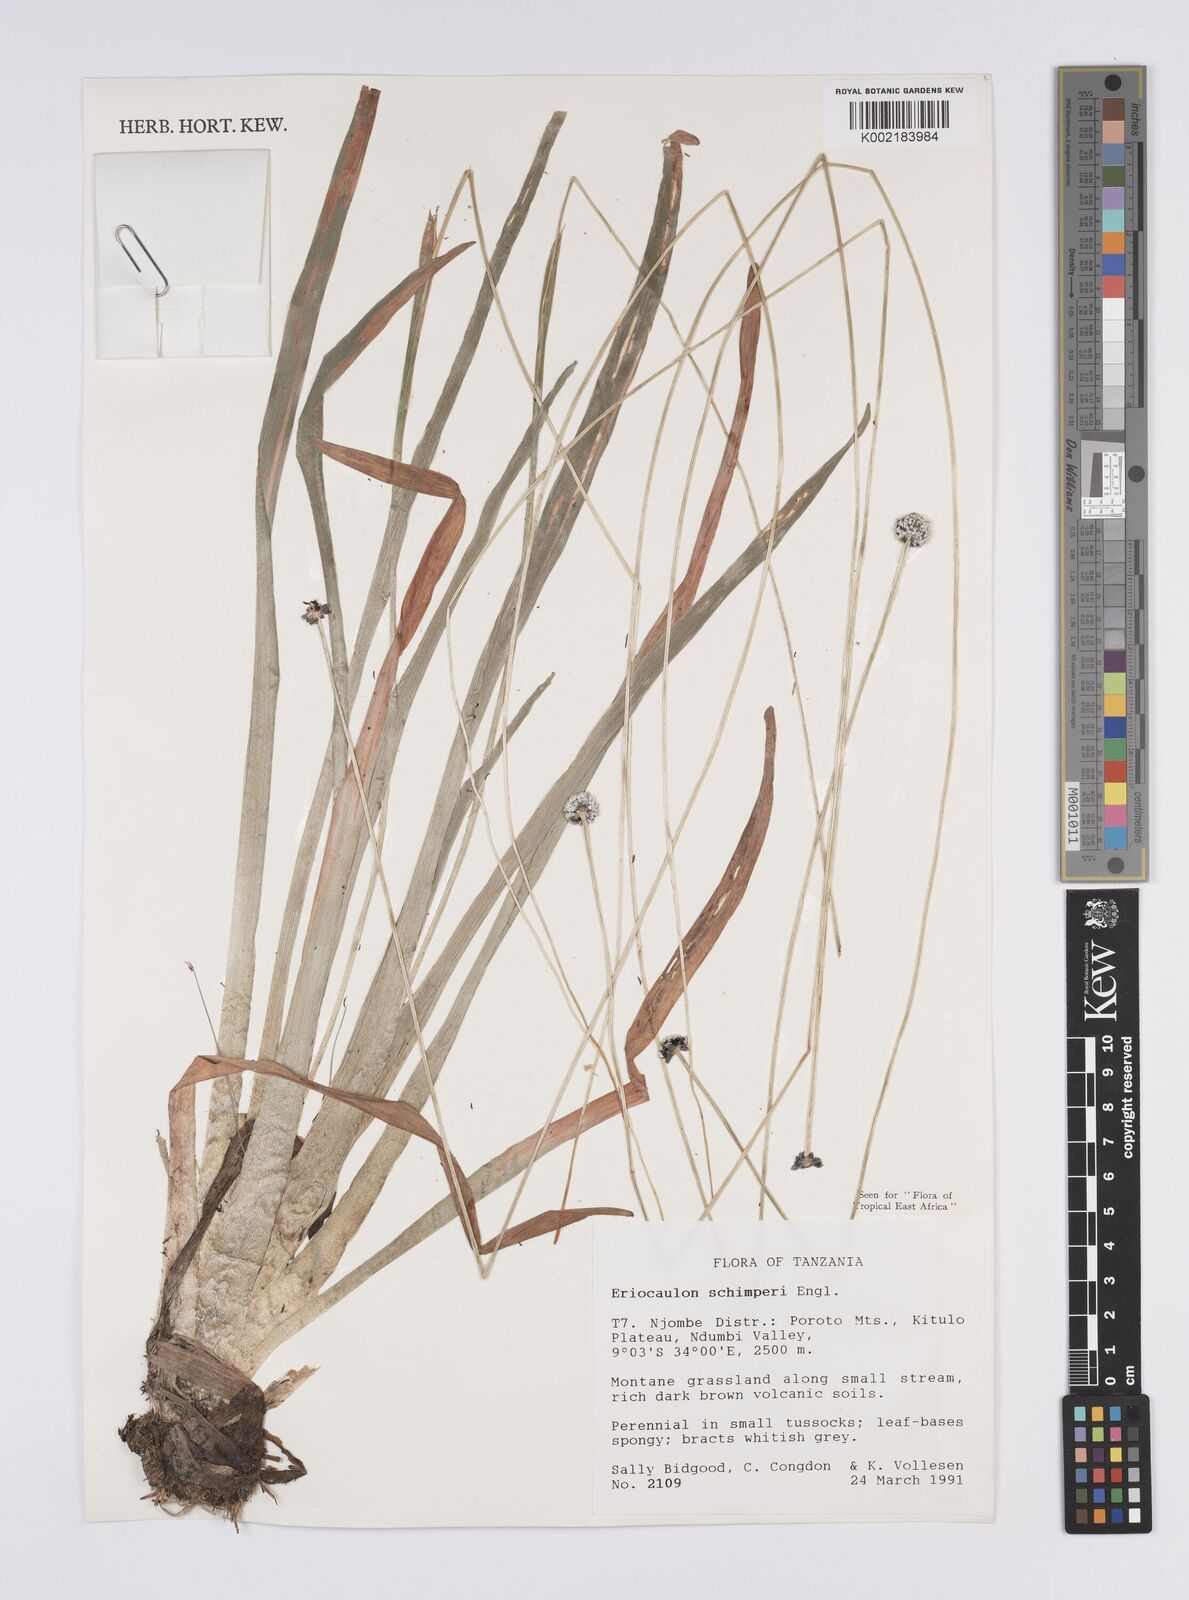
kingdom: Plantae
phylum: Tracheophyta
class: Liliopsida
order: Poales
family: Eriocaulaceae
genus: Eriocaulon
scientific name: Eriocaulon schimperi
